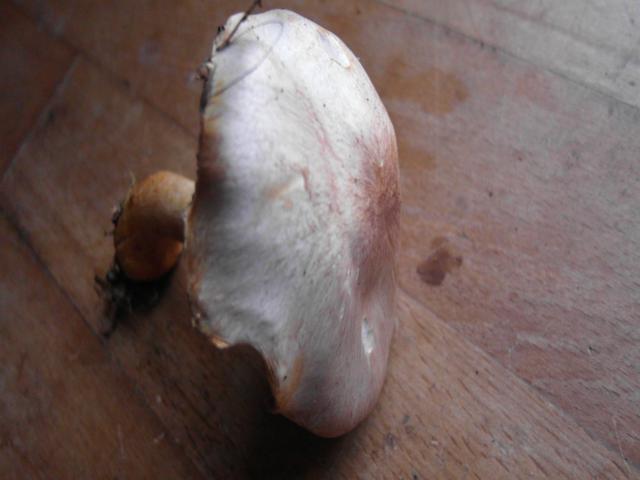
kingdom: Fungi
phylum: Basidiomycota
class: Agaricomycetes
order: Agaricales
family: Agaricaceae
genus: Agaricus
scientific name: Agaricus dulcidulus
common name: blegrød champignon
